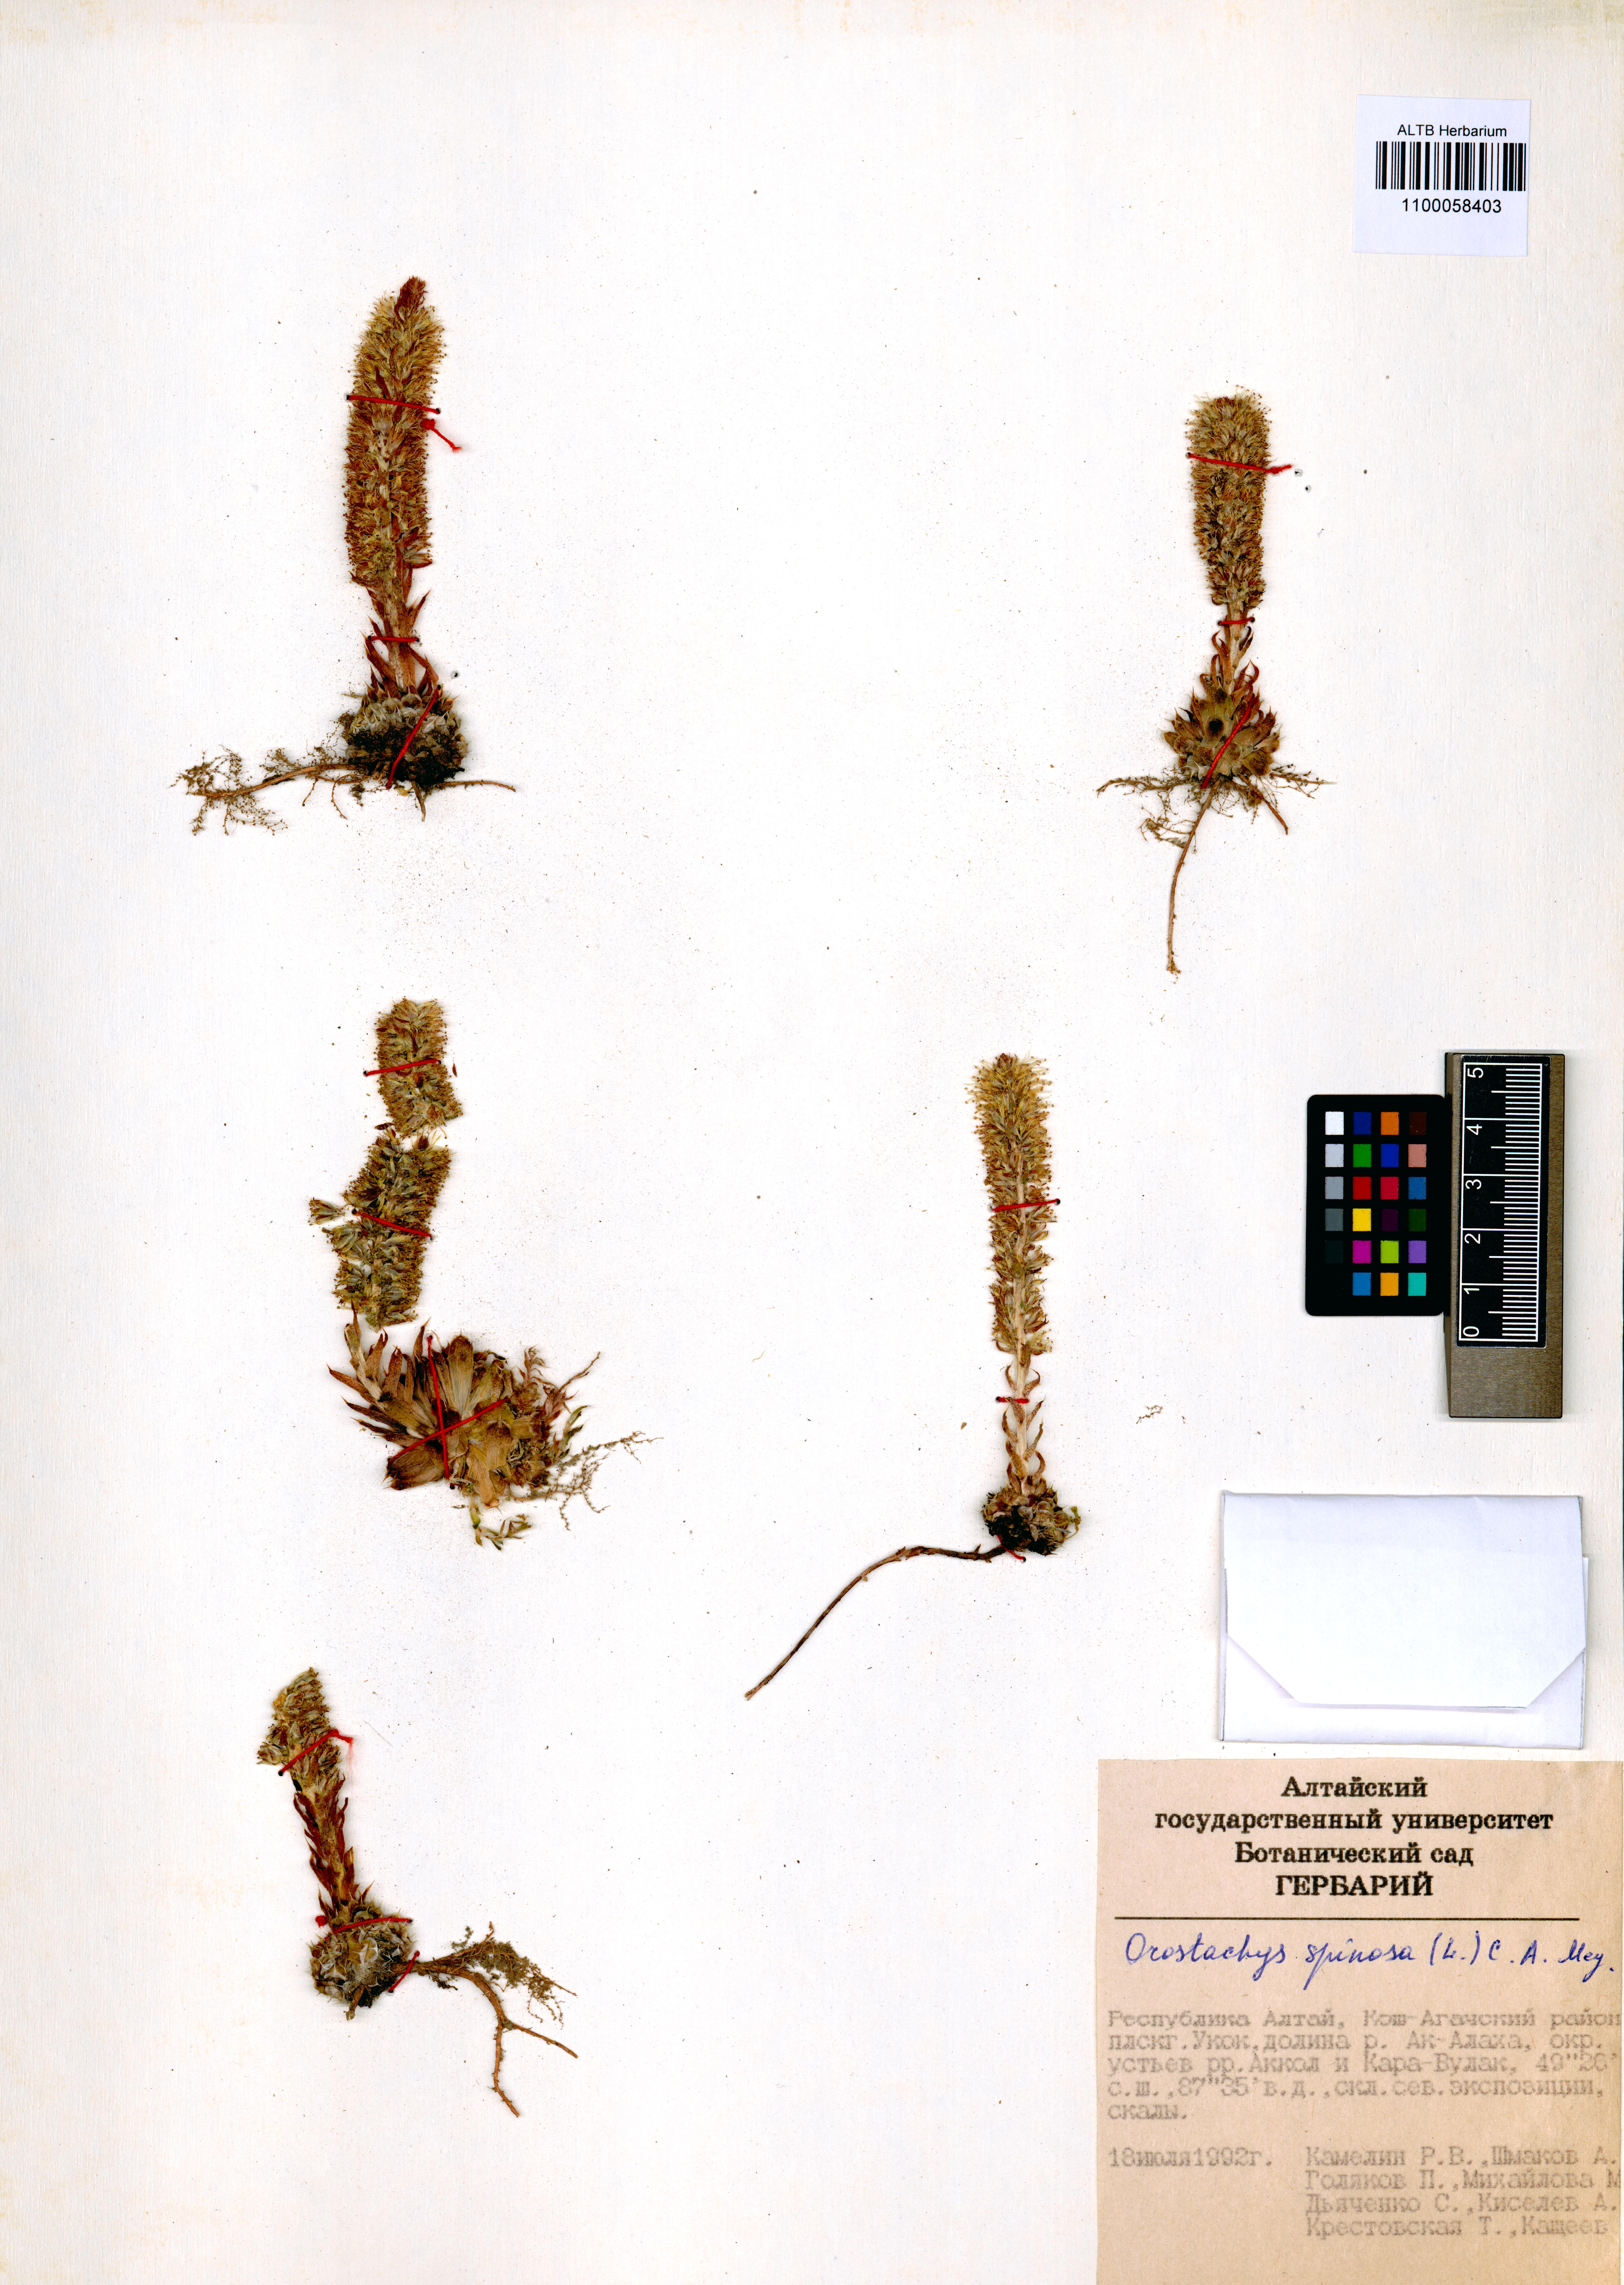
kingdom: Plantae
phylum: Tracheophyta
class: Magnoliopsida
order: Saxifragales
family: Crassulaceae
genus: Orostachys
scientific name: Orostachys spinosa
